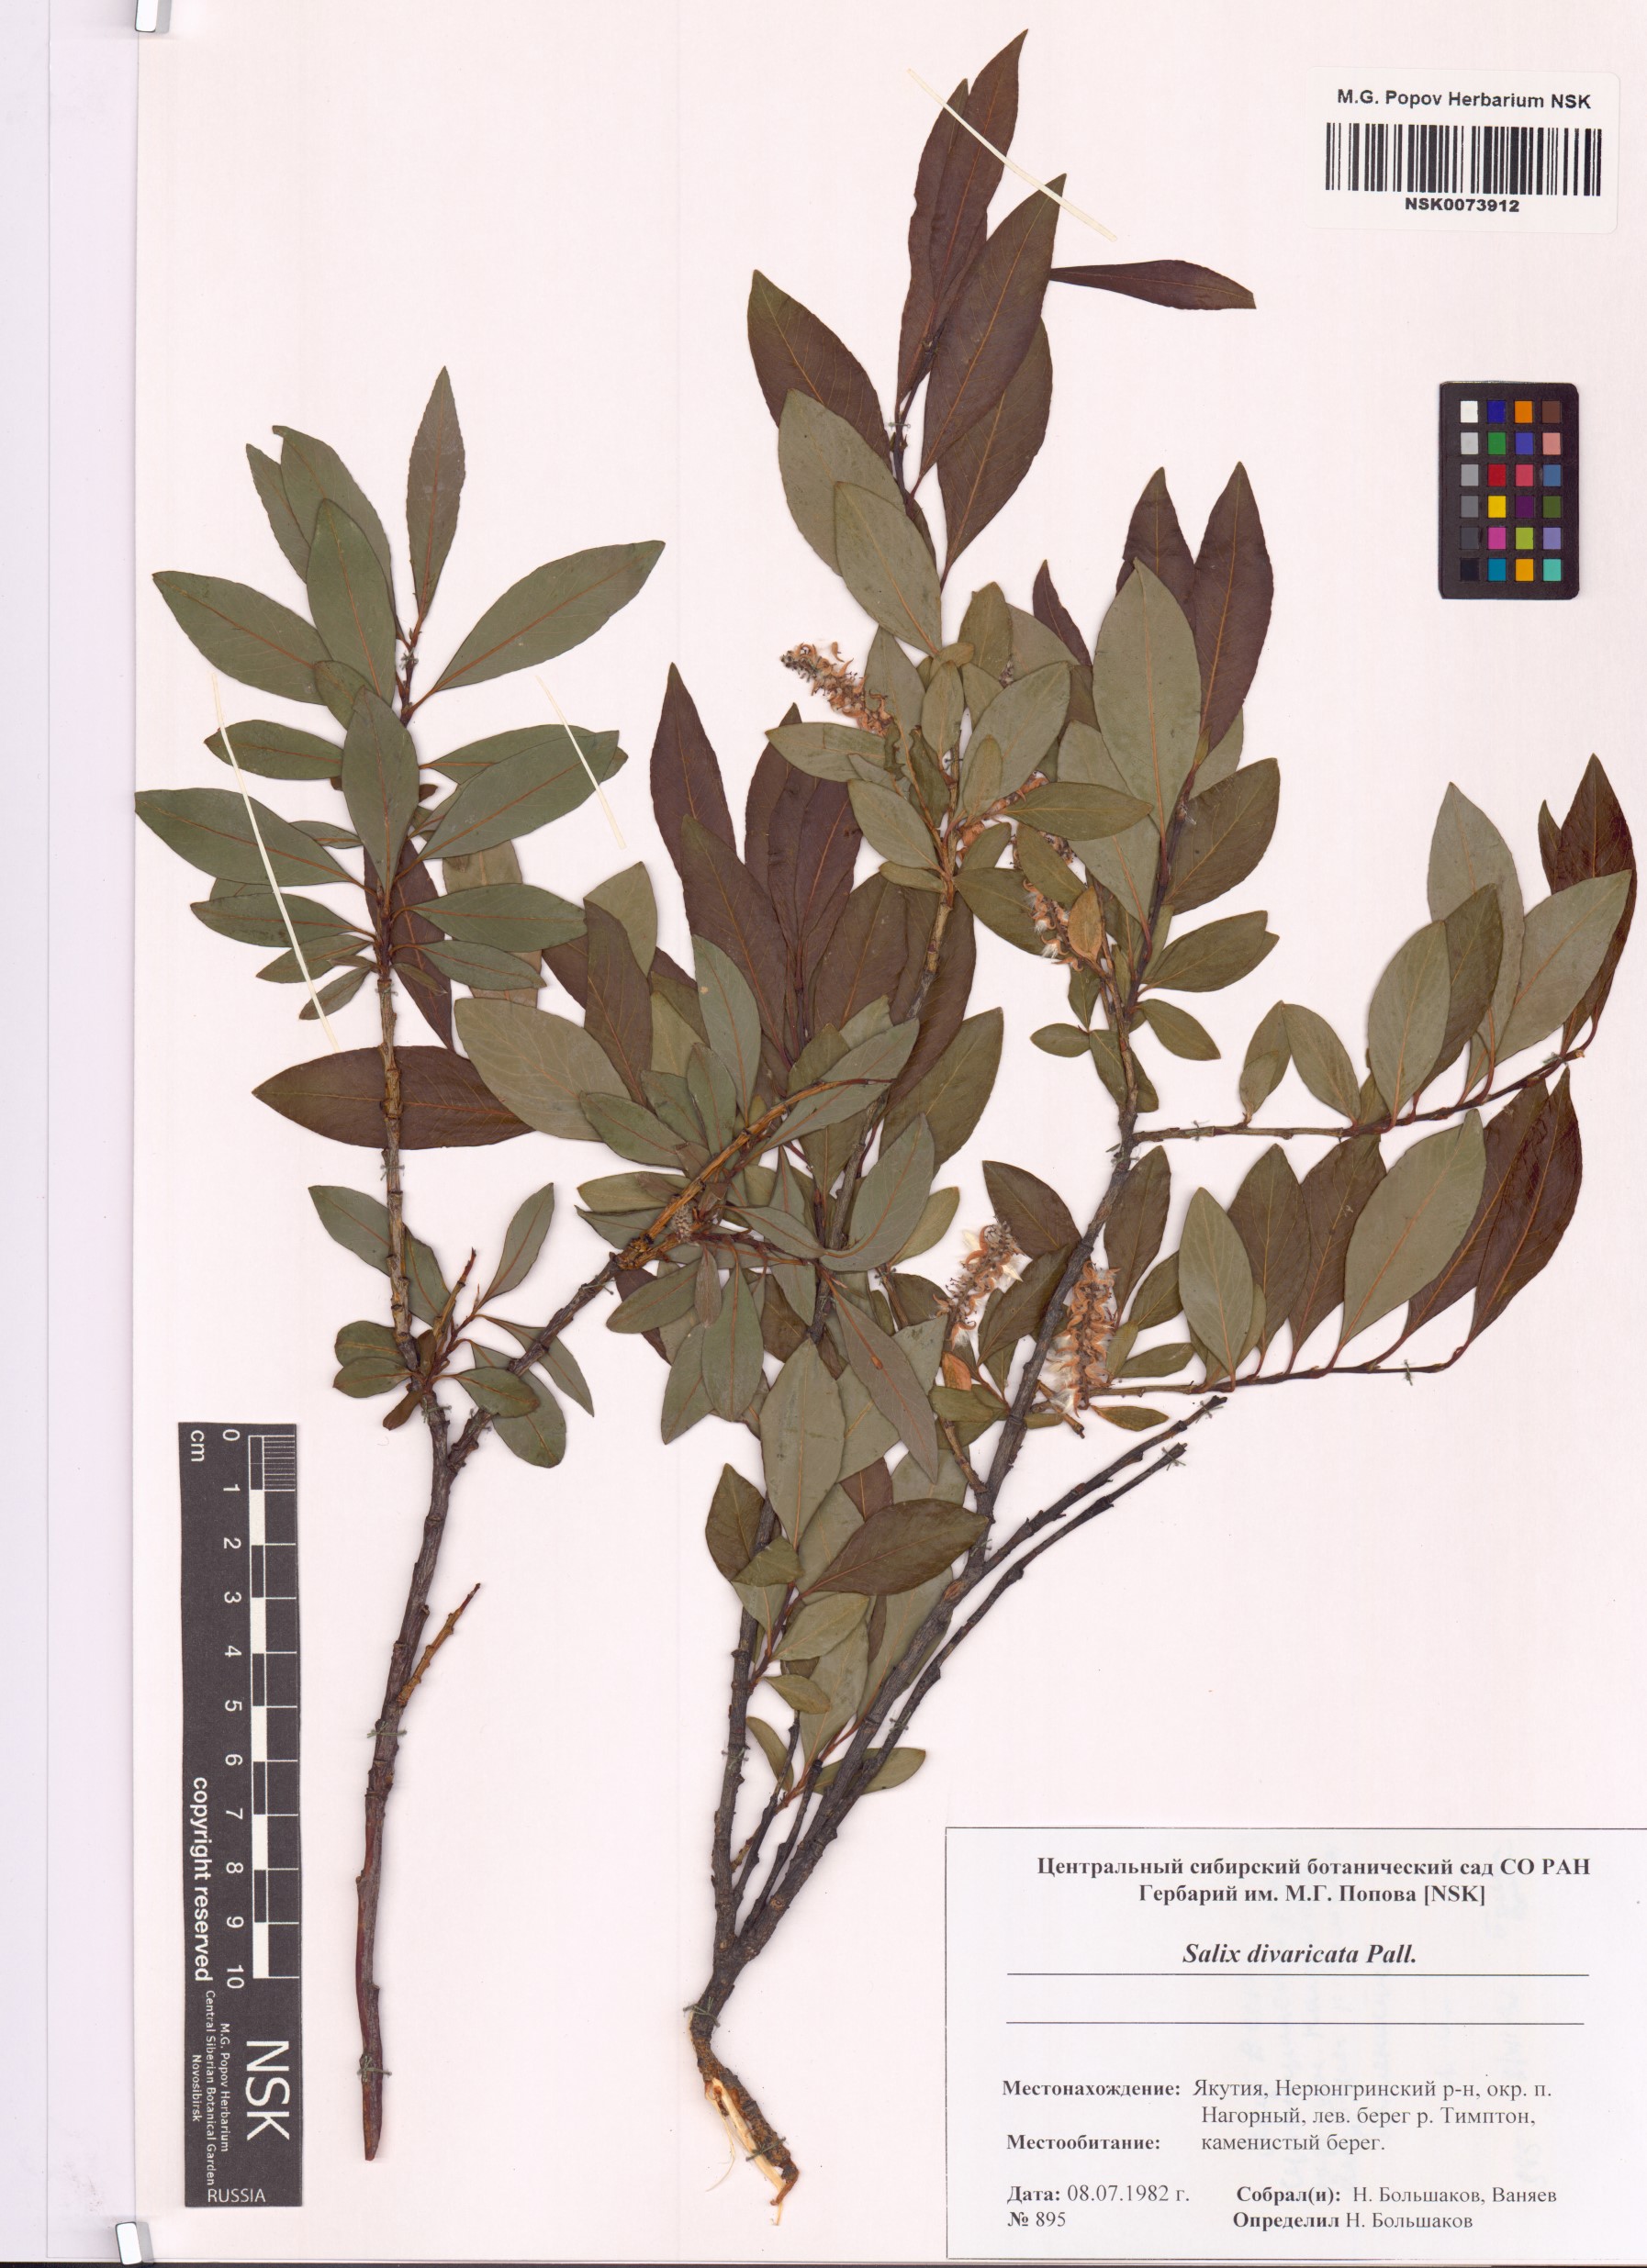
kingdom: Plantae
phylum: Tracheophyta
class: Magnoliopsida
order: Malpighiales
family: Salicaceae
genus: Salix
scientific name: Salix divaricata
